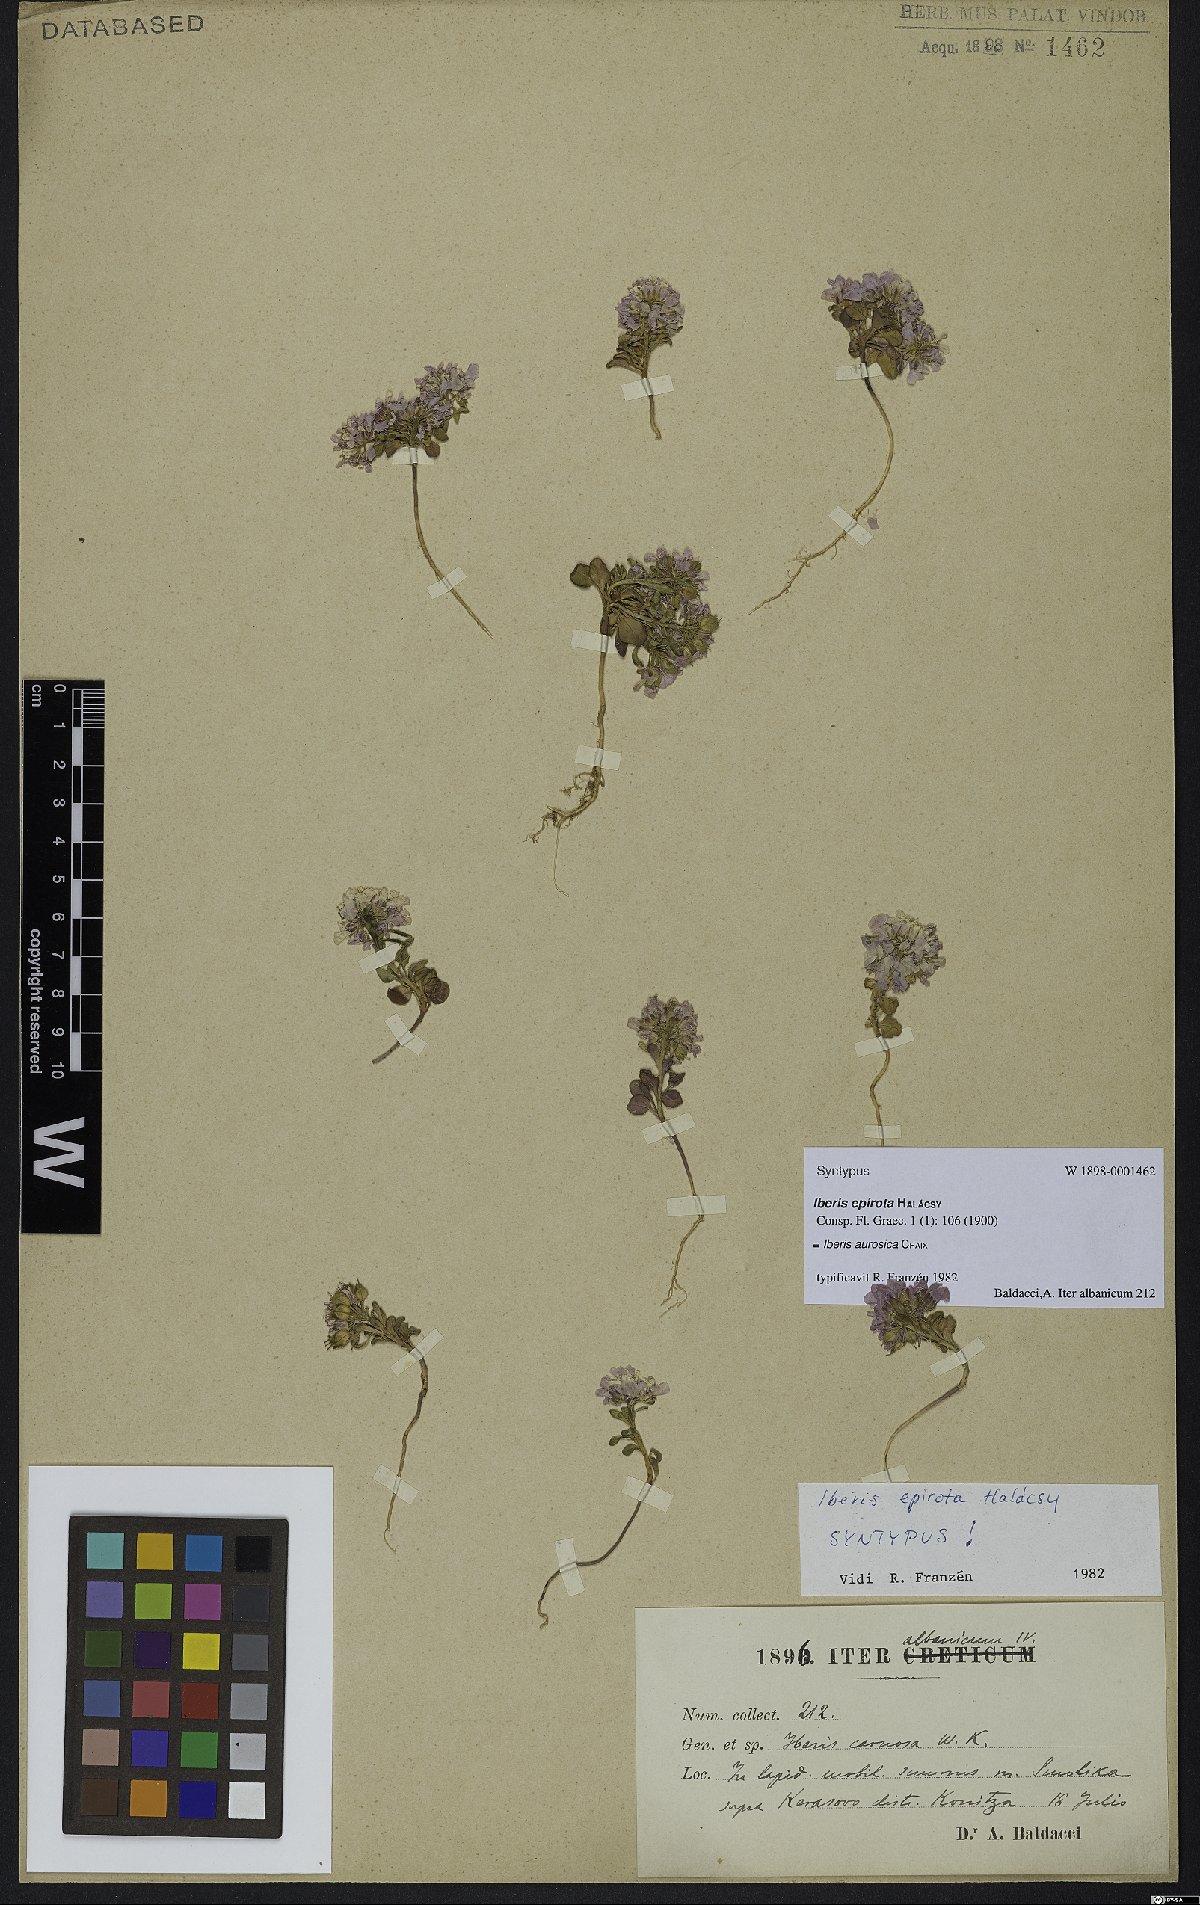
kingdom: Plantae
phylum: Tracheophyta
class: Magnoliopsida
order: Brassicales
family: Brassicaceae
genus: Iberis
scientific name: Iberis aurosica
